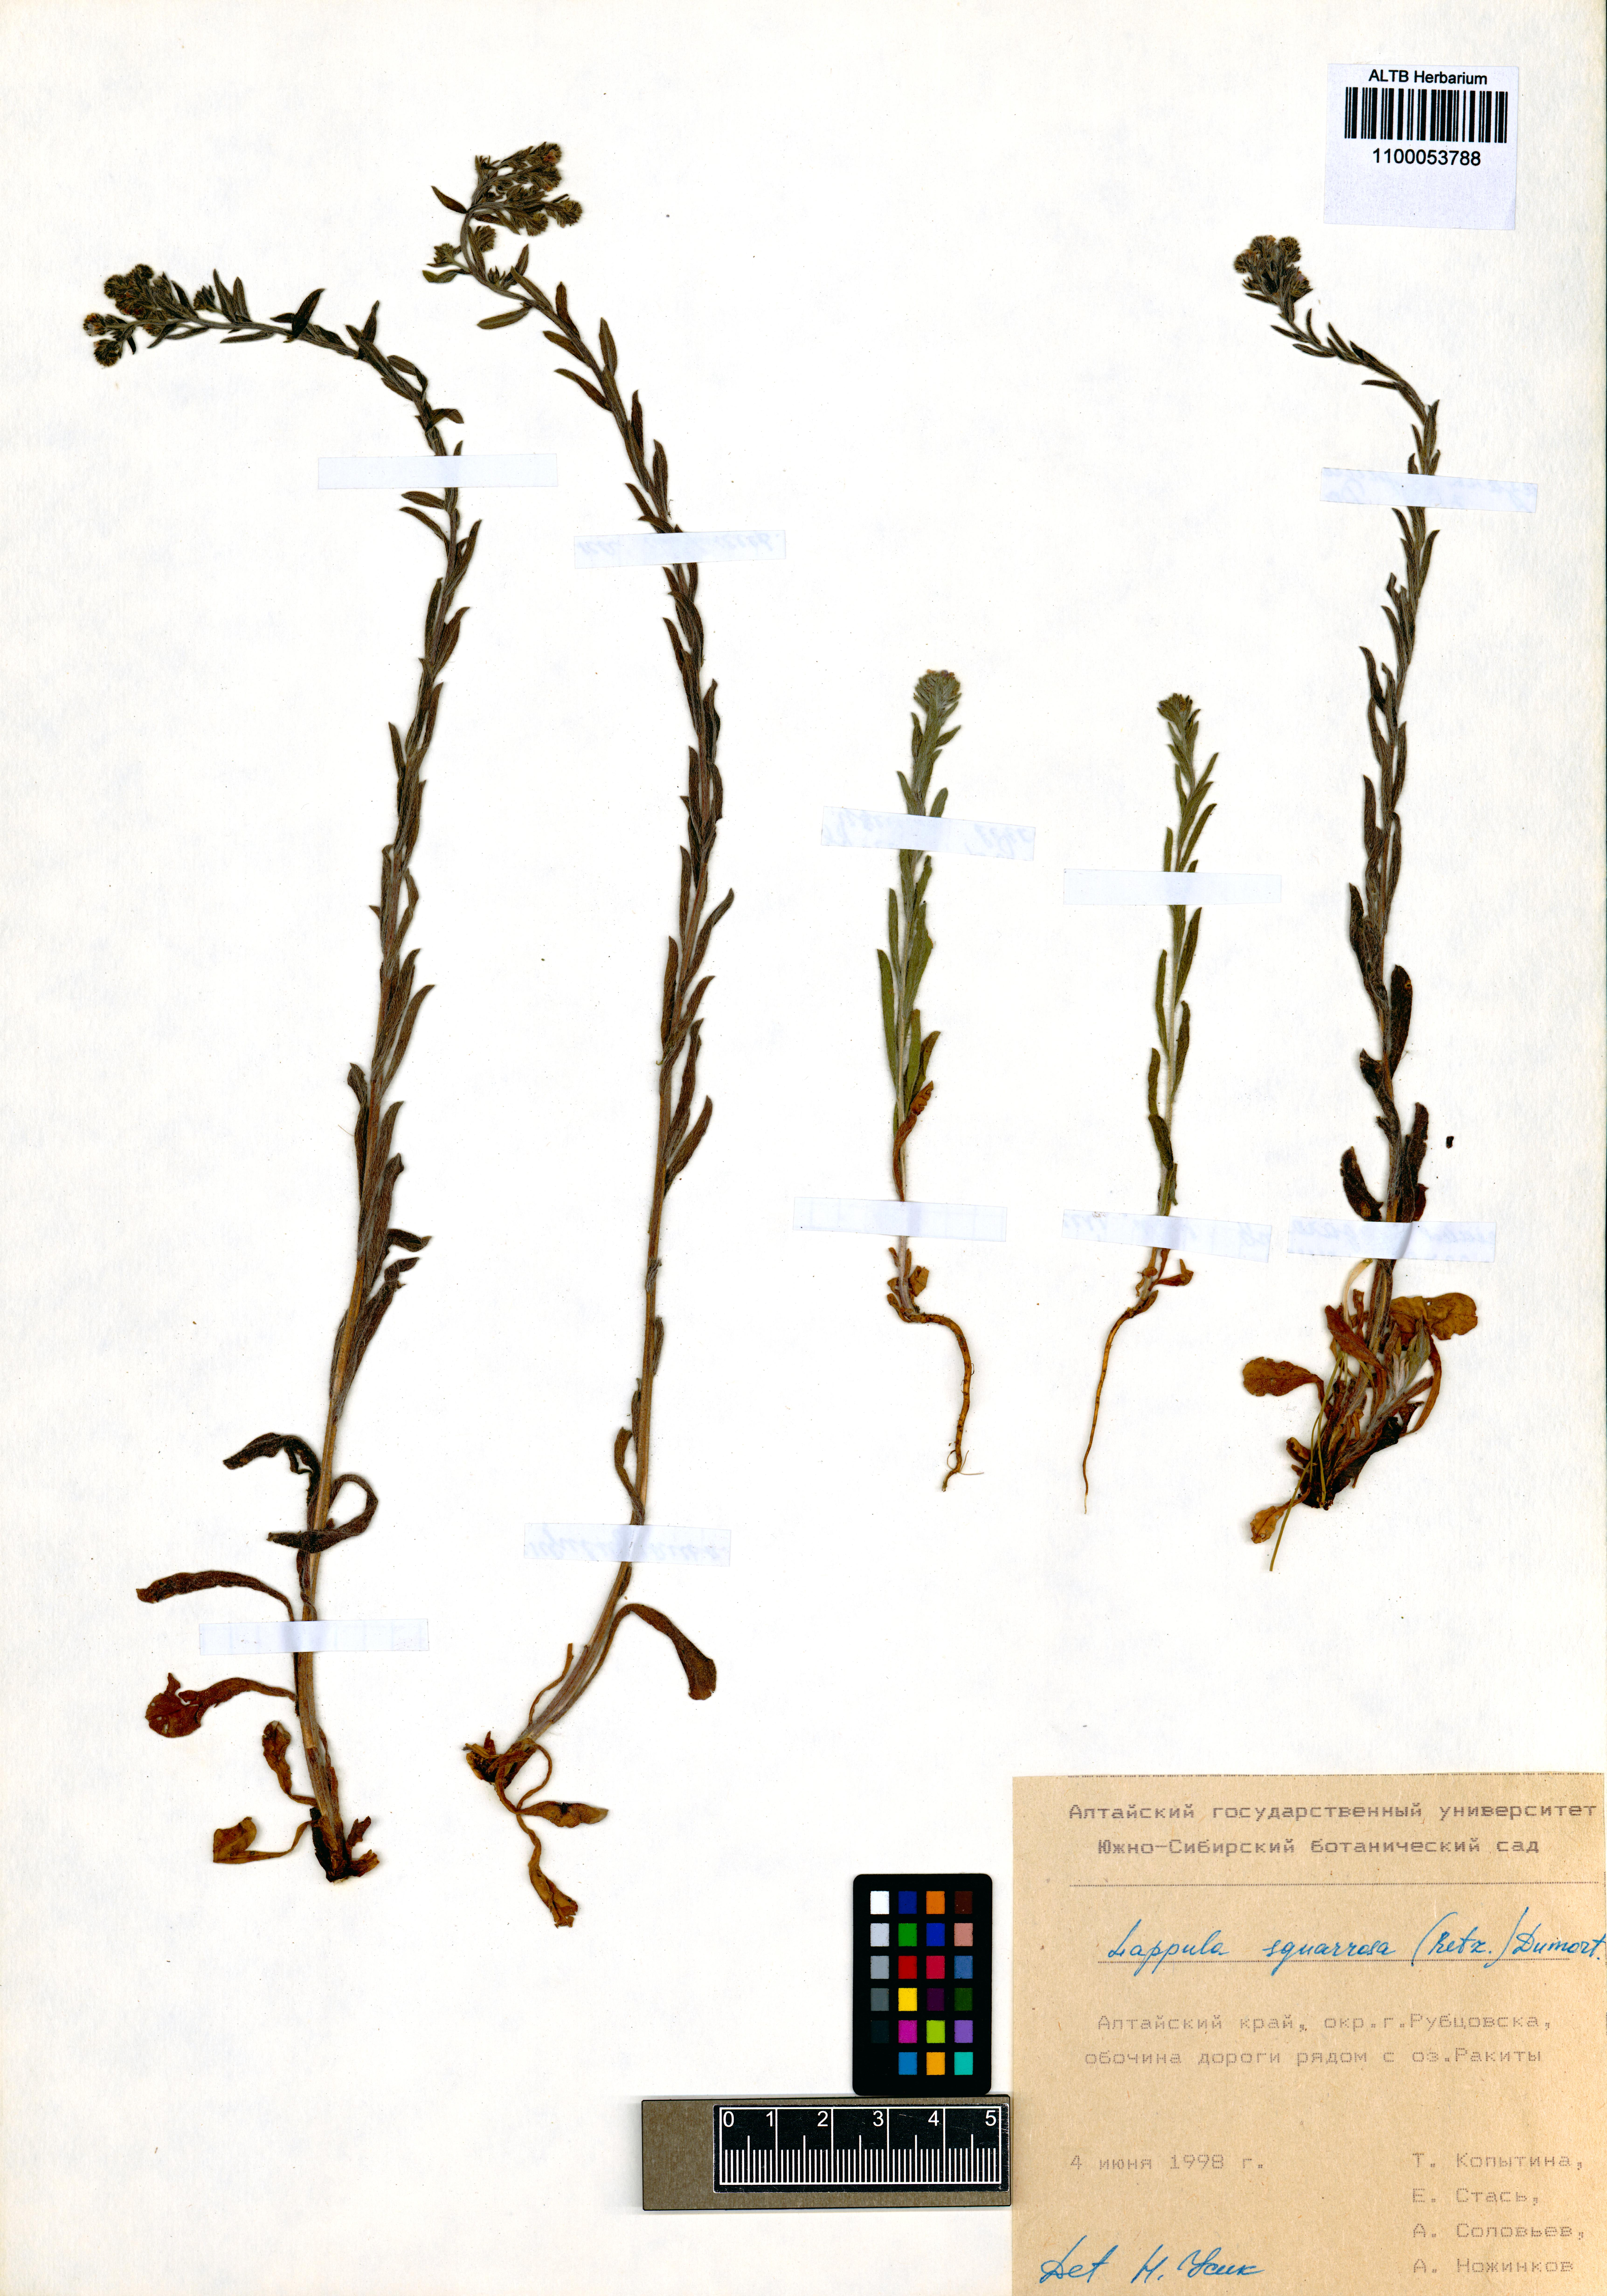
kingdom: Plantae
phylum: Tracheophyta
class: Magnoliopsida
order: Boraginales
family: Boraginaceae
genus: Lappula
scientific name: Lappula squarrosa
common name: European stickseed
